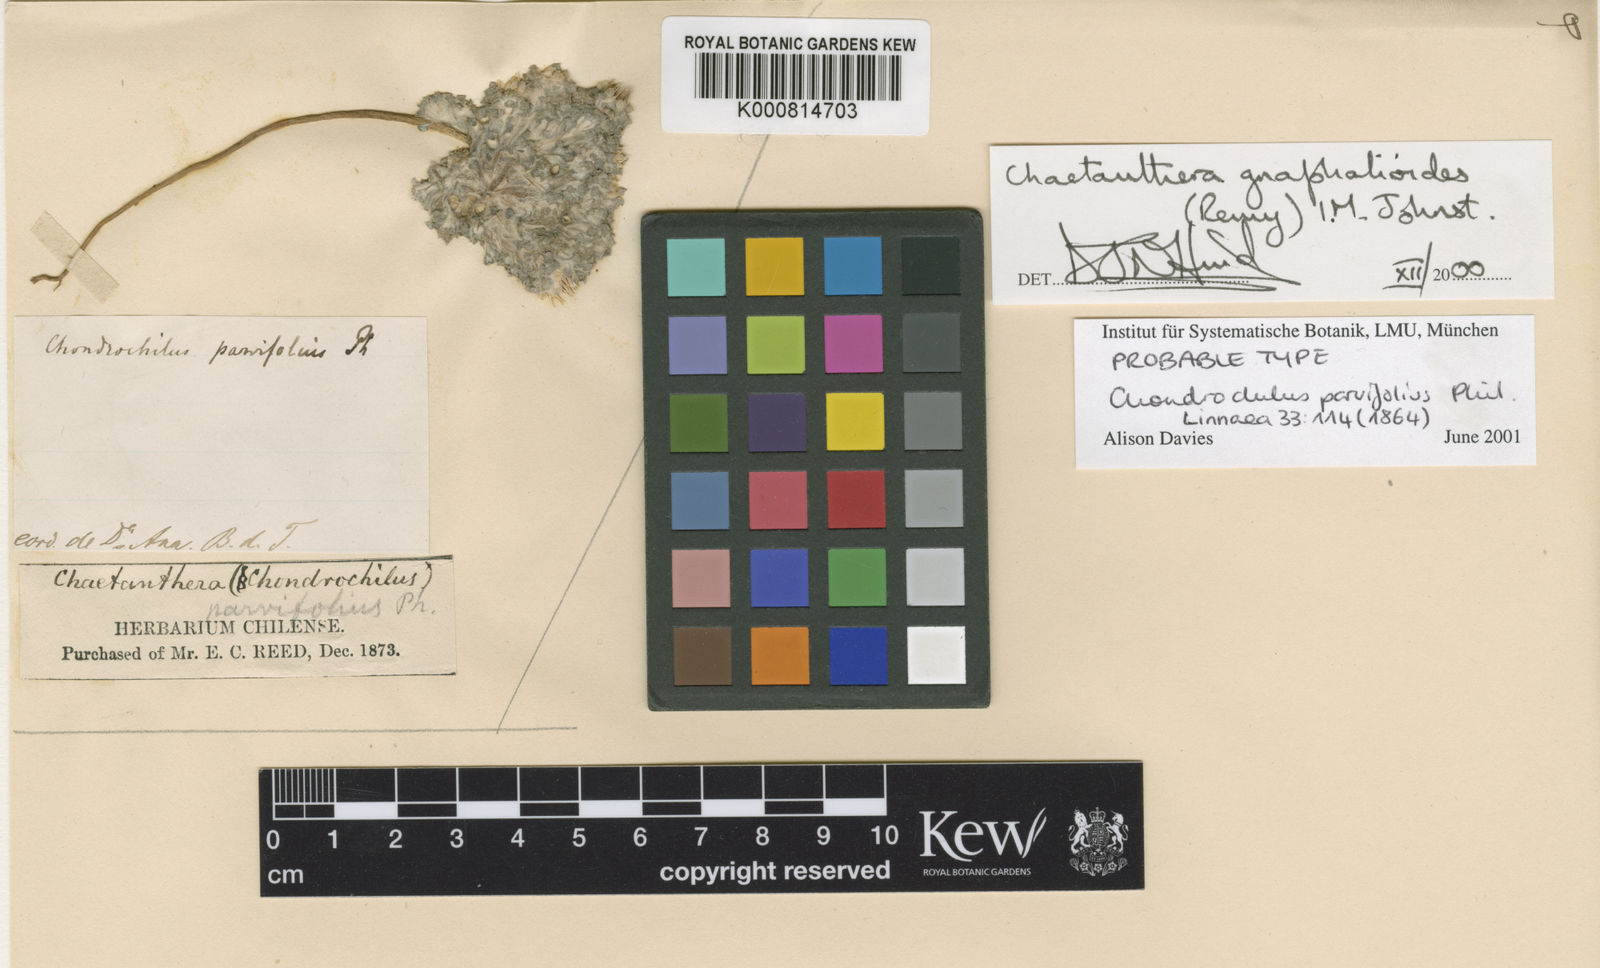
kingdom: Plantae
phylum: Tracheophyta
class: Magnoliopsida
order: Asterales
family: Asteraceae
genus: Oriastrum
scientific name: Oriastrum
